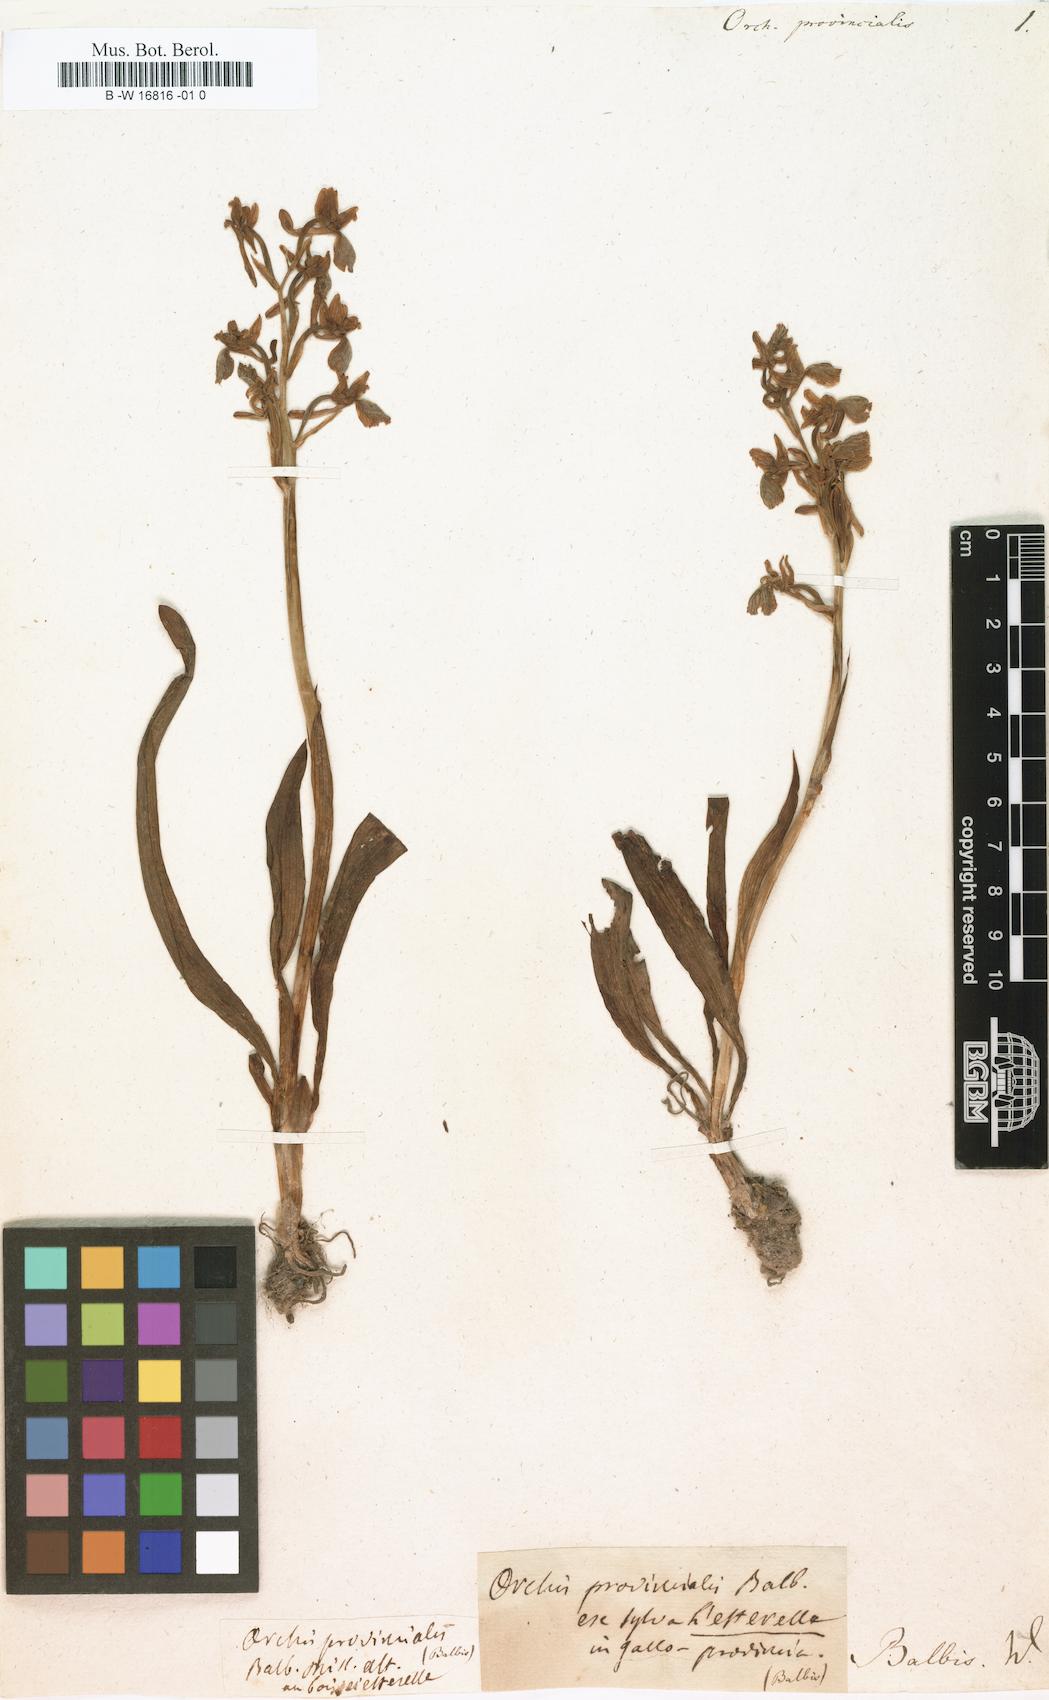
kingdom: Plantae
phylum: Tracheophyta
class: Liliopsida
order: Asparagales
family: Orchidaceae
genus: Orchis
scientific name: Orchis provincialis
